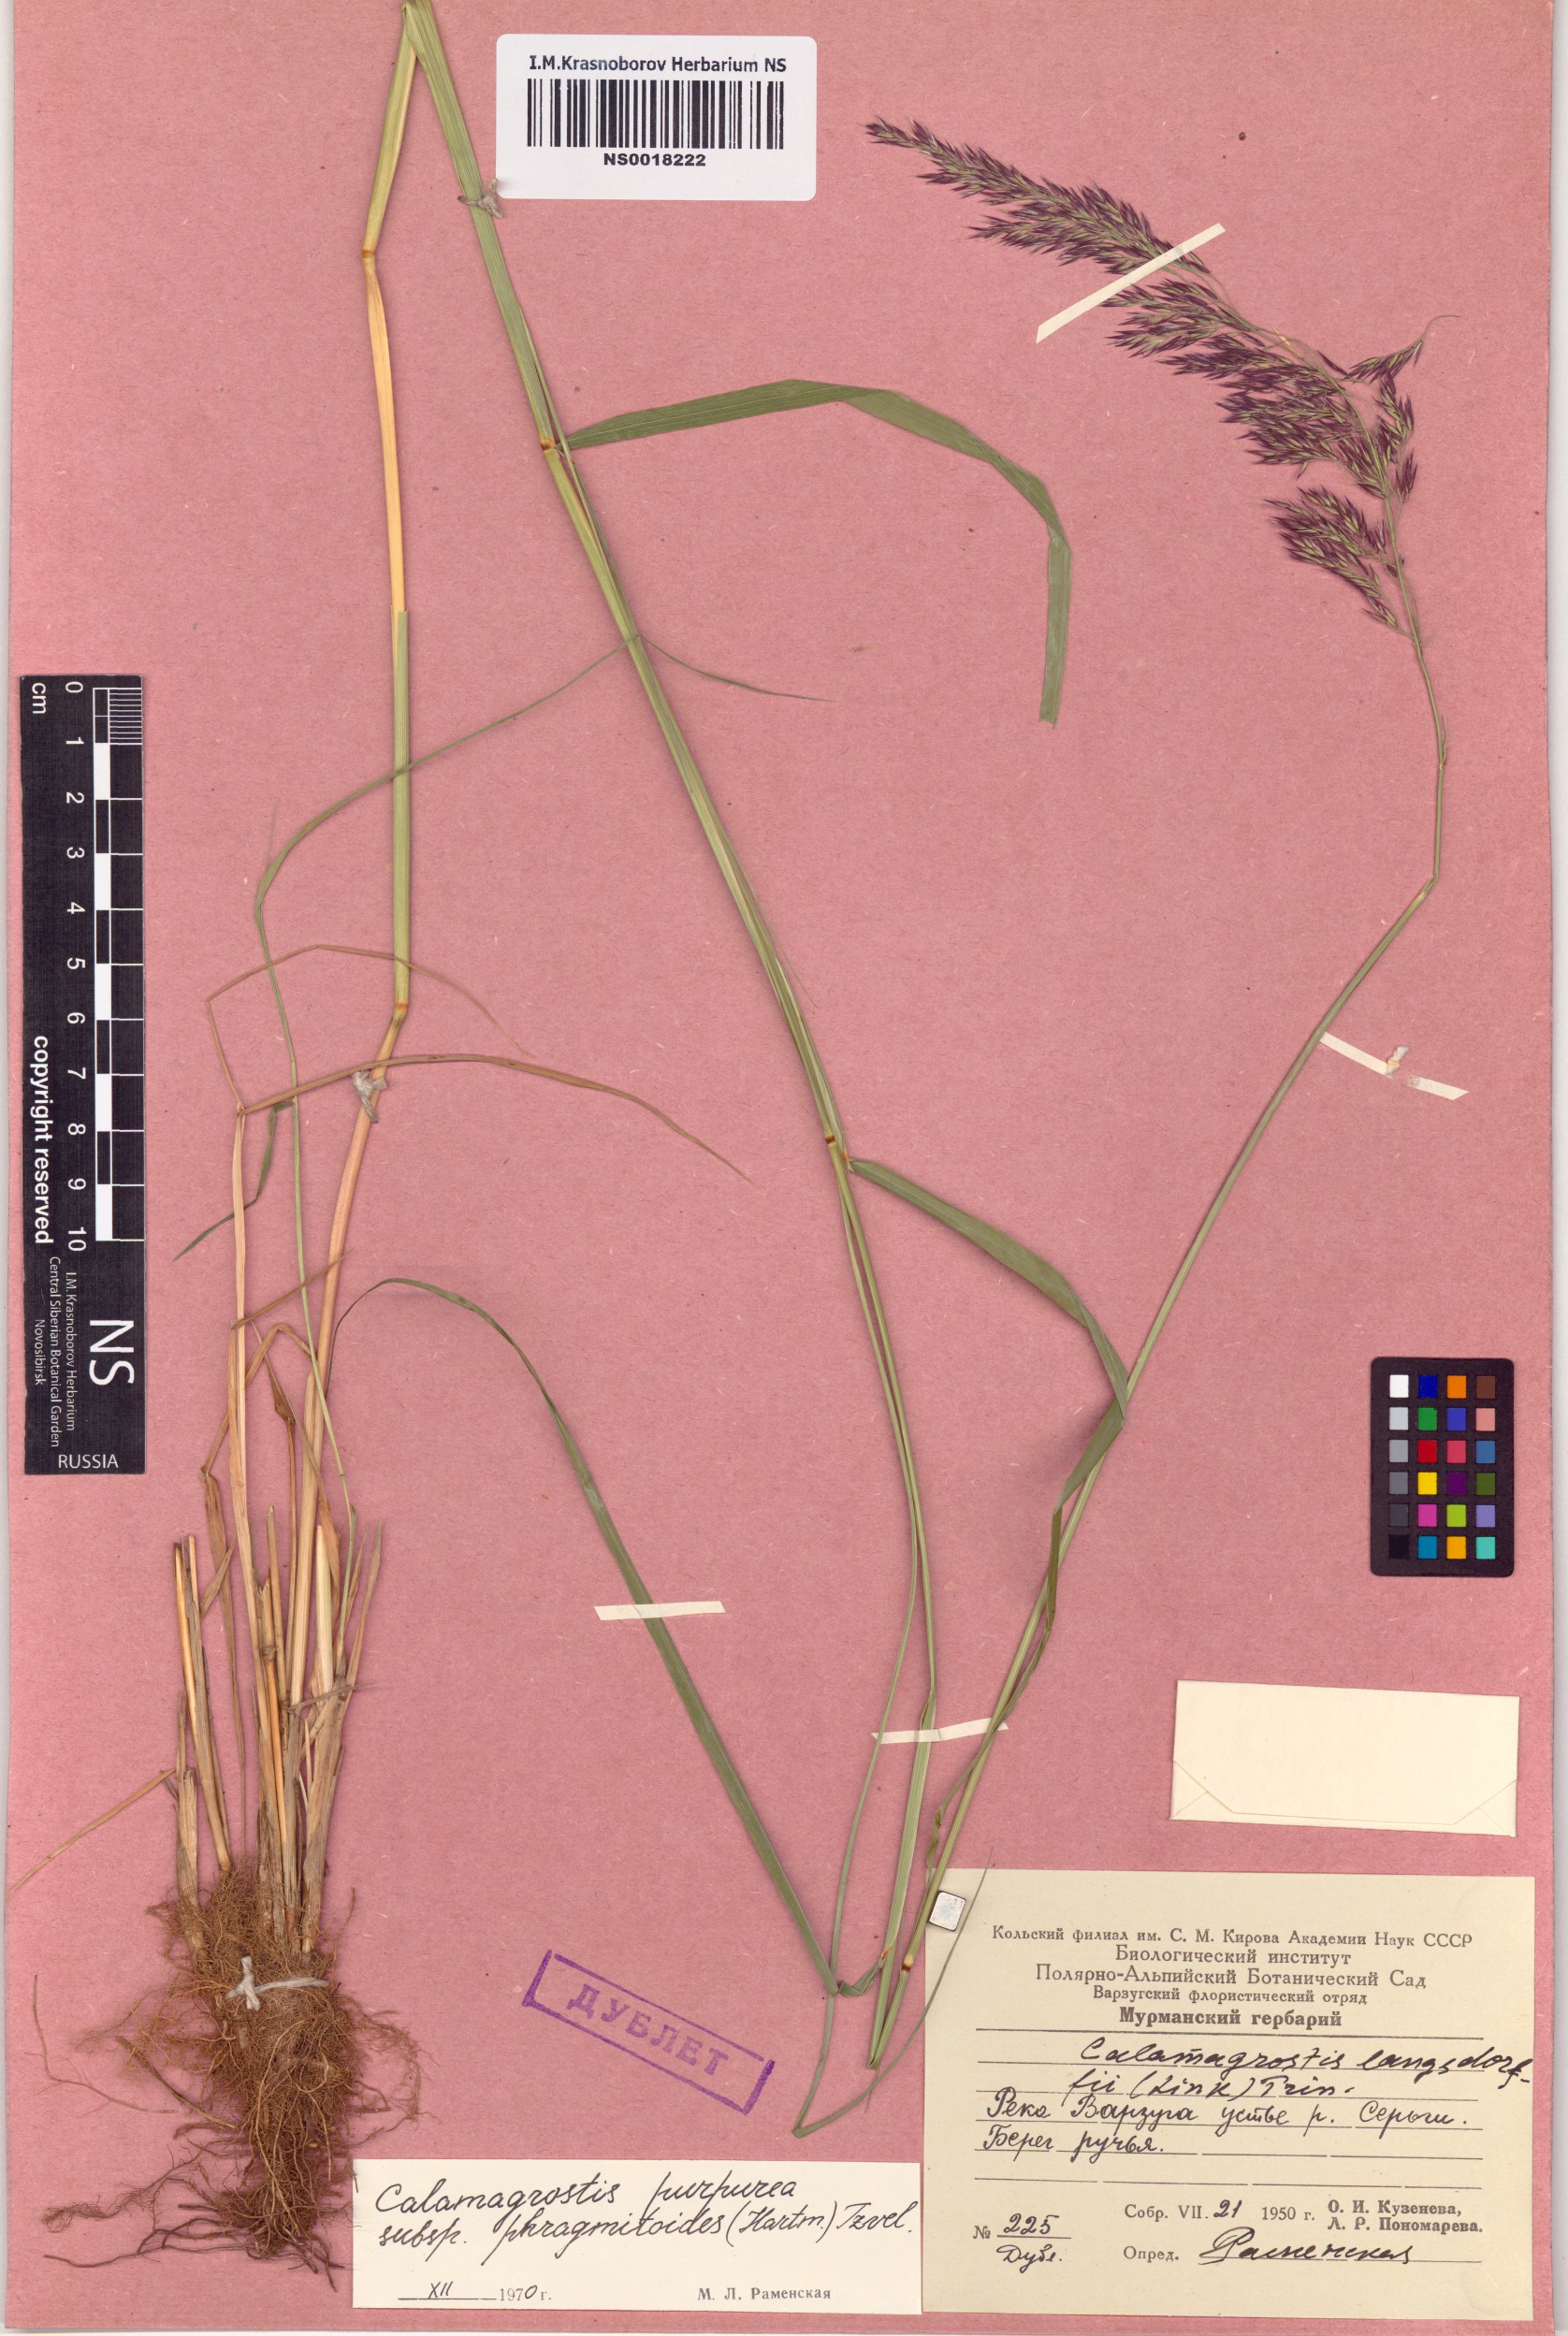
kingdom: Plantae
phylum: Tracheophyta
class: Liliopsida
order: Poales
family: Poaceae
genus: Calamagrostis
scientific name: Calamagrostis purpurea
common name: Scandinavian small-reed
